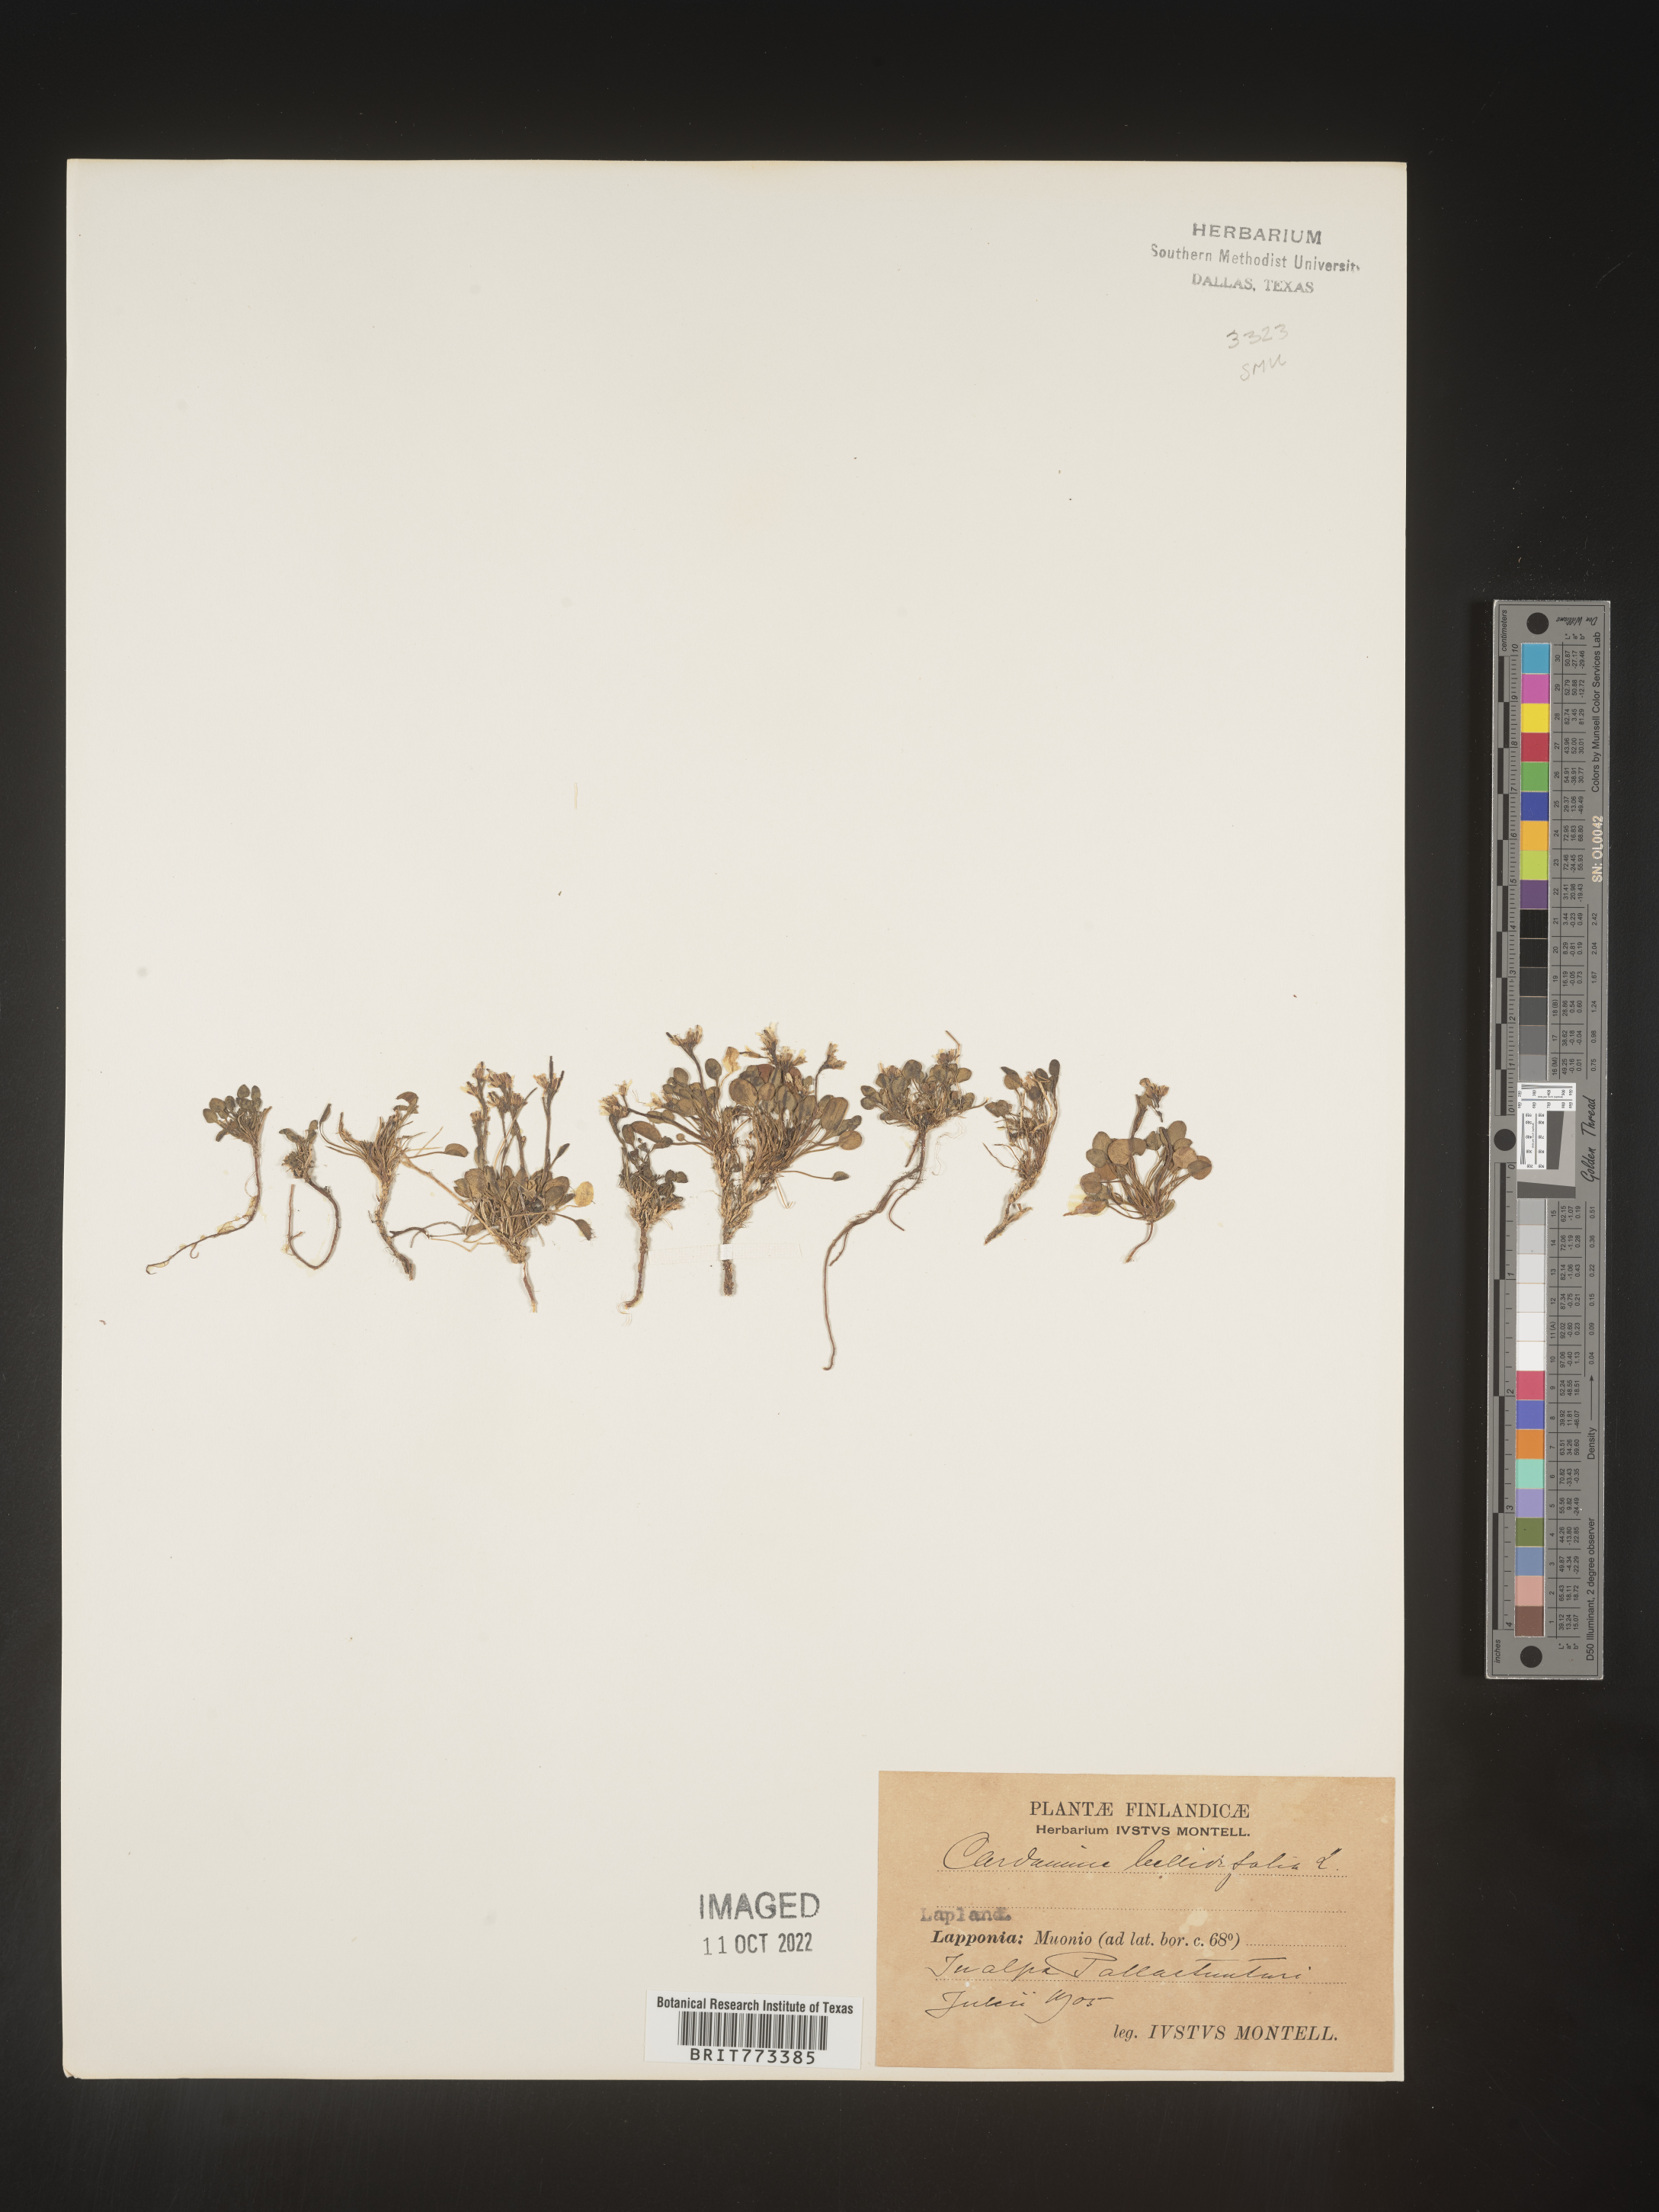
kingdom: Plantae
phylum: Tracheophyta
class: Magnoliopsida
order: Brassicales
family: Brassicaceae
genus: Cardamine
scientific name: Cardamine
